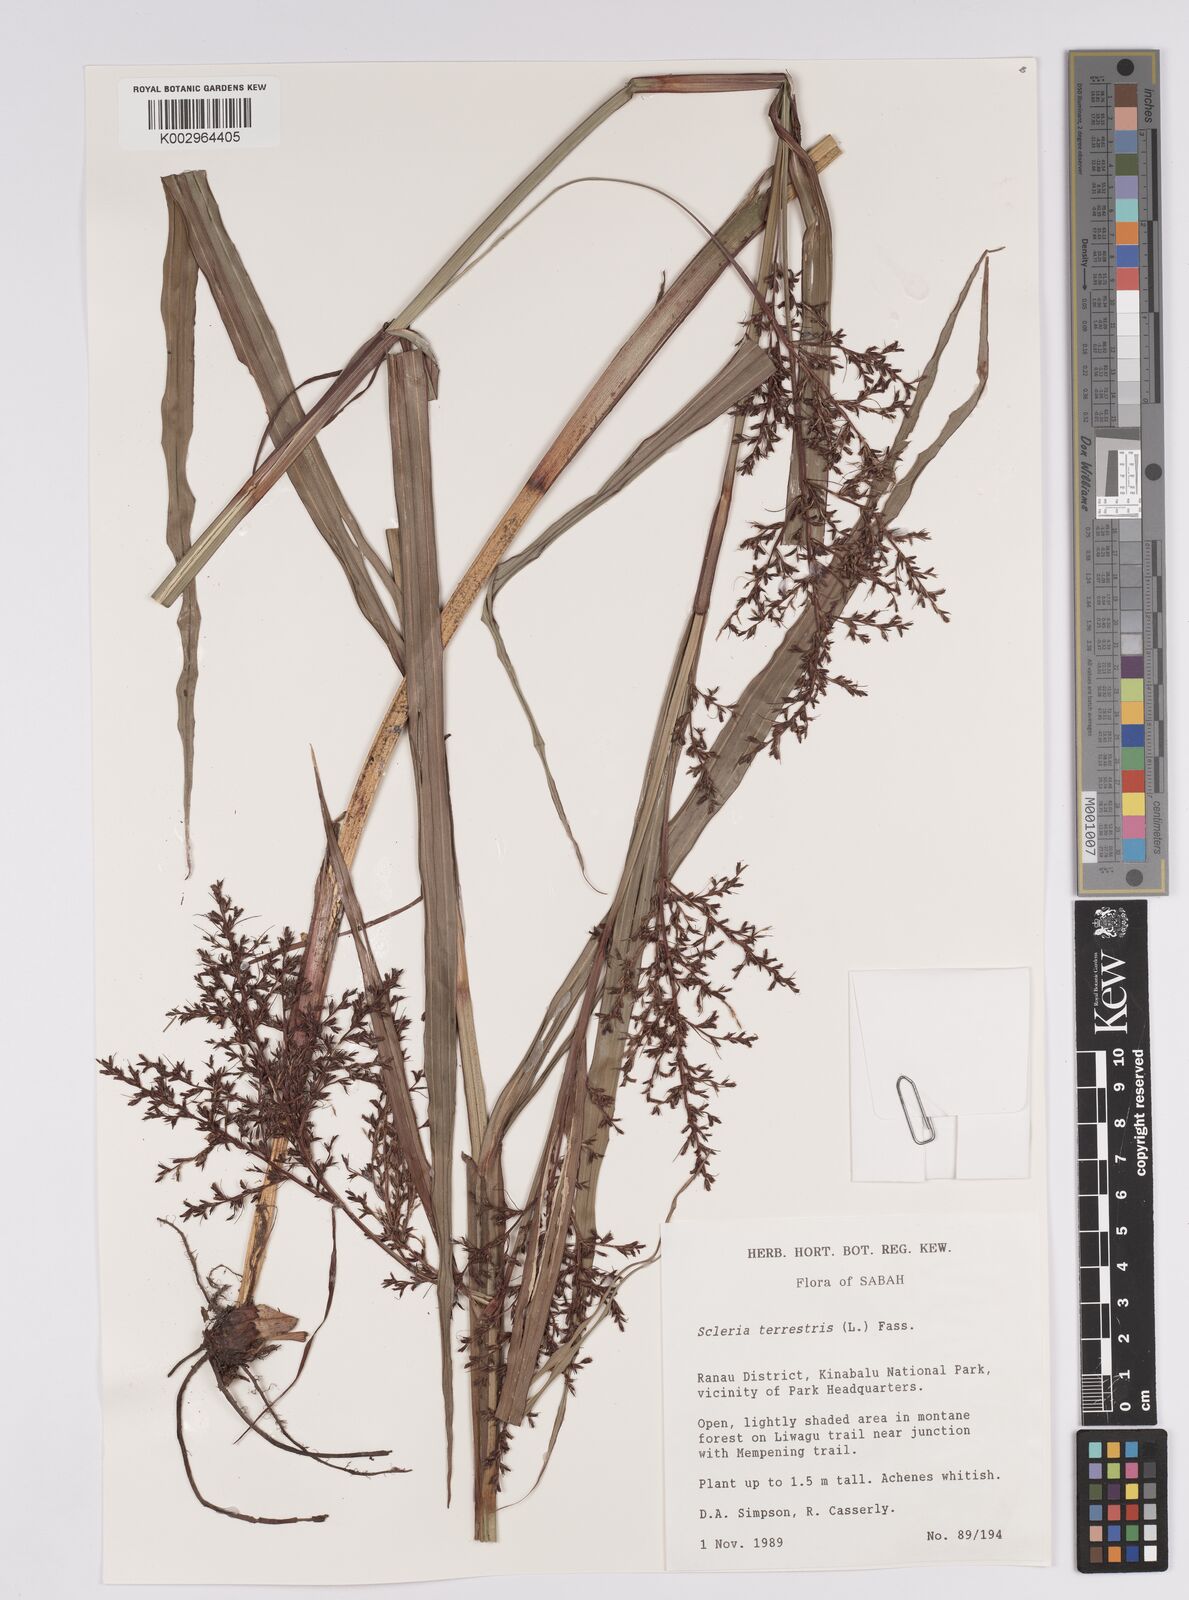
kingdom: Plantae
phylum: Tracheophyta
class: Liliopsida
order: Poales
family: Cyperaceae
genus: Scleria
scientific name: Scleria terrestris
